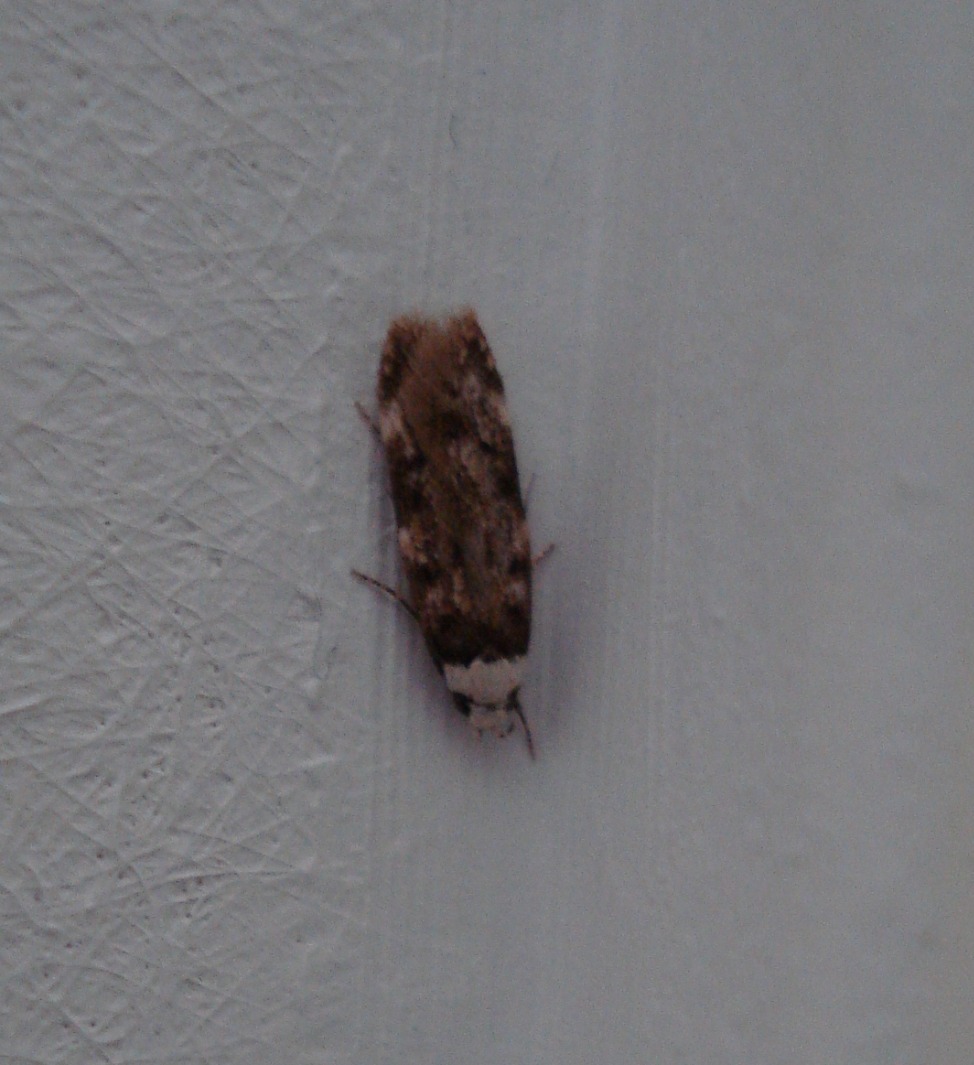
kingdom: Animalia
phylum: Arthropoda
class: Insecta
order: Lepidoptera
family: Oecophoridae
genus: Endrosis
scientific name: Endrosis sarcitrella
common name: Klistermøl
